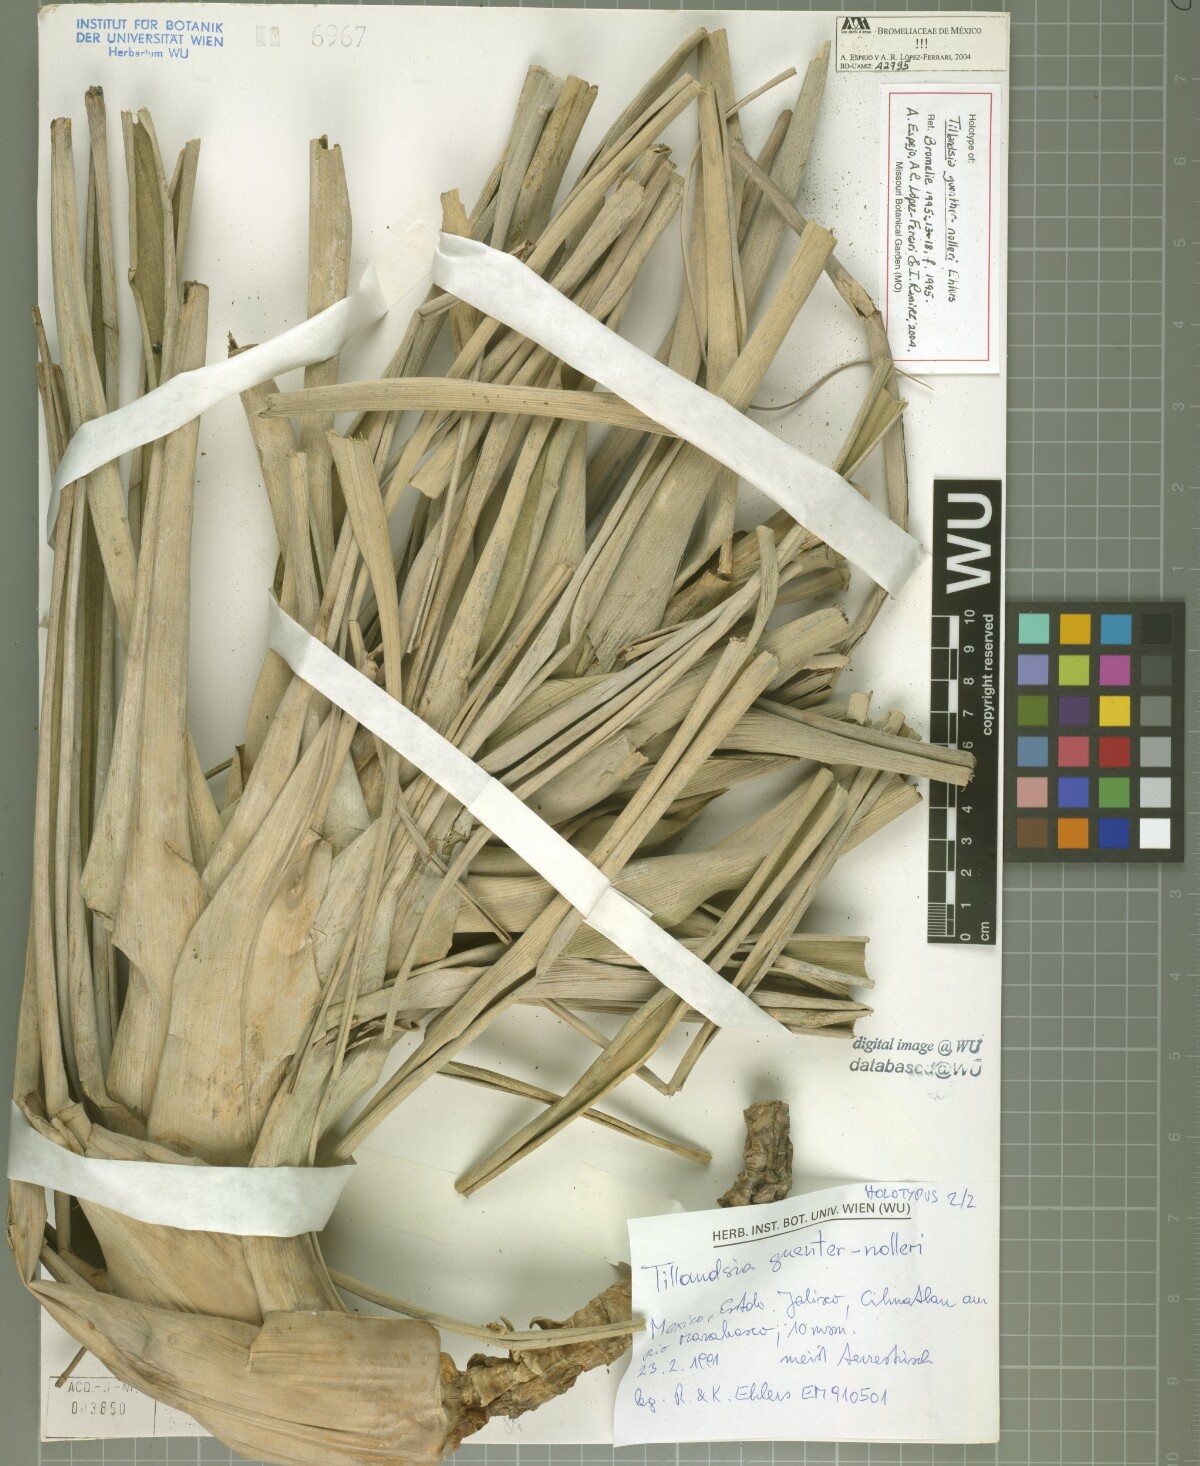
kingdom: Plantae
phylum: Tracheophyta
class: Liliopsida
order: Poales
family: Bromeliaceae
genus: Tillandsia
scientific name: Tillandsia guenther-nolleri
